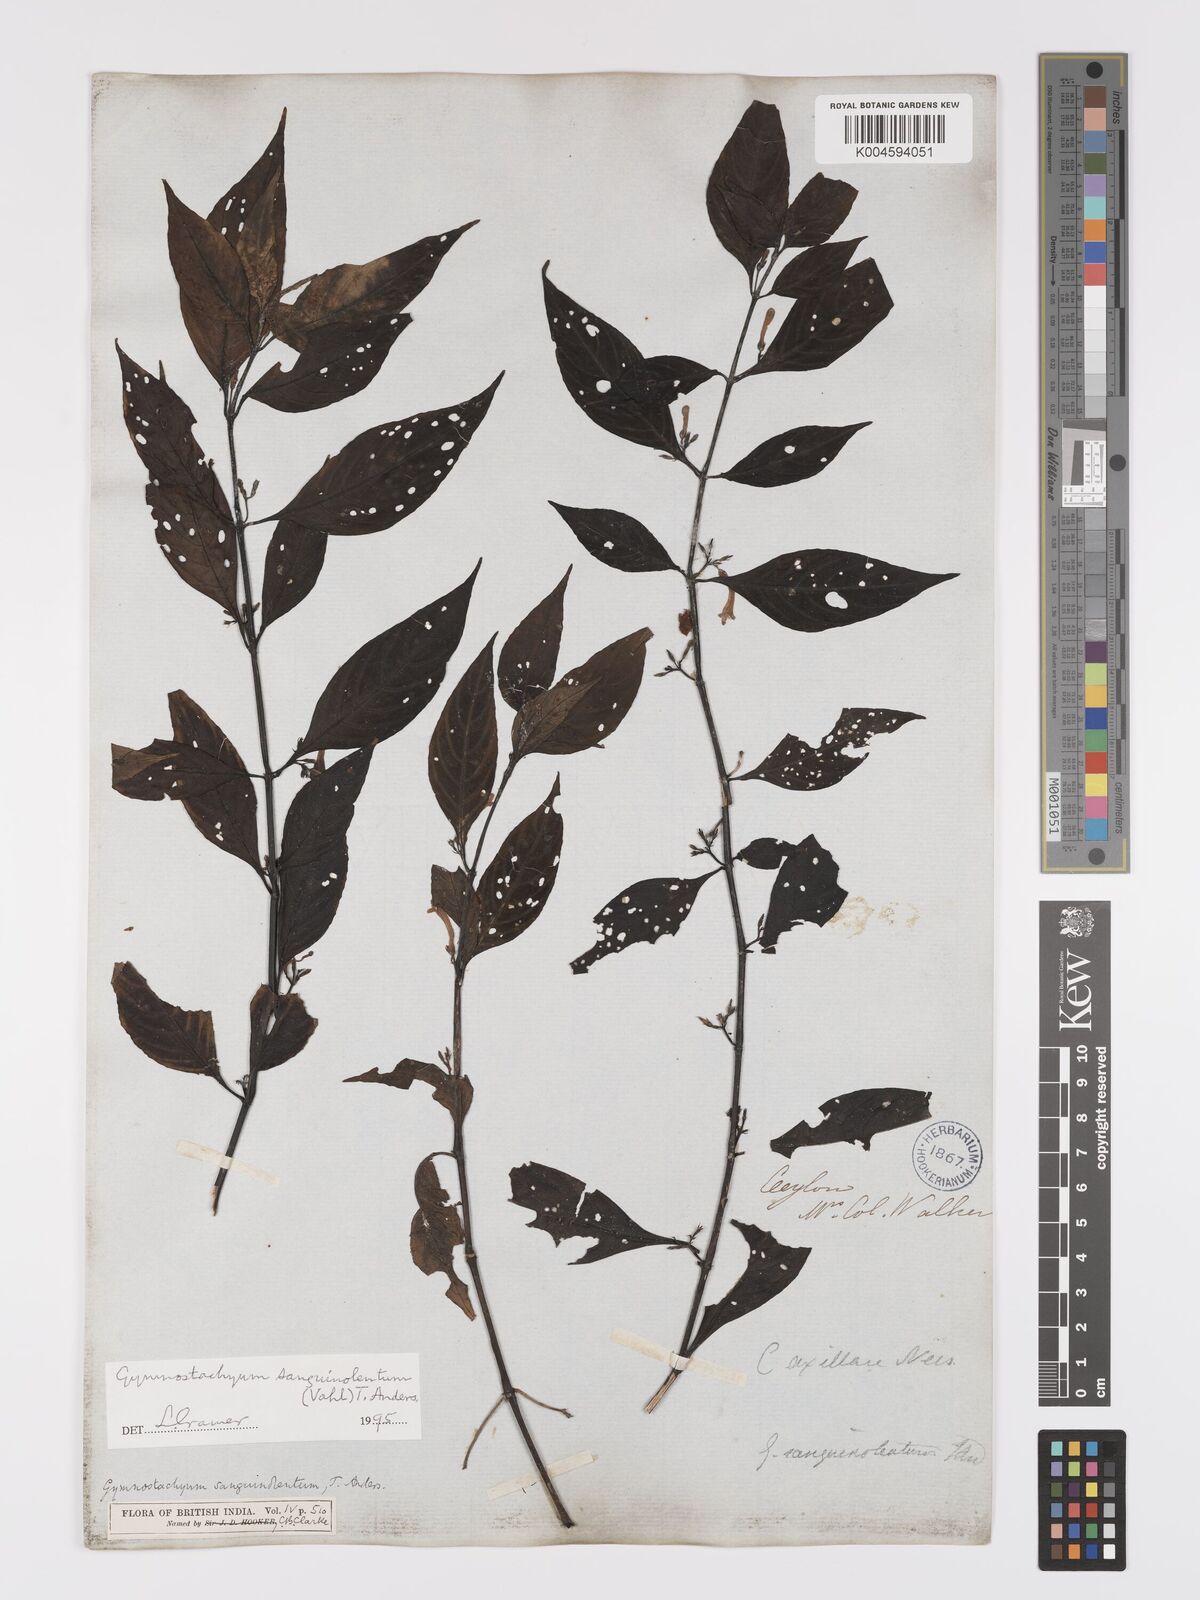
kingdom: Plantae
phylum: Tracheophyta
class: Magnoliopsida
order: Lamiales
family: Acanthaceae
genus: Gymnostachyum
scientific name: Gymnostachyum sanguinolentum
